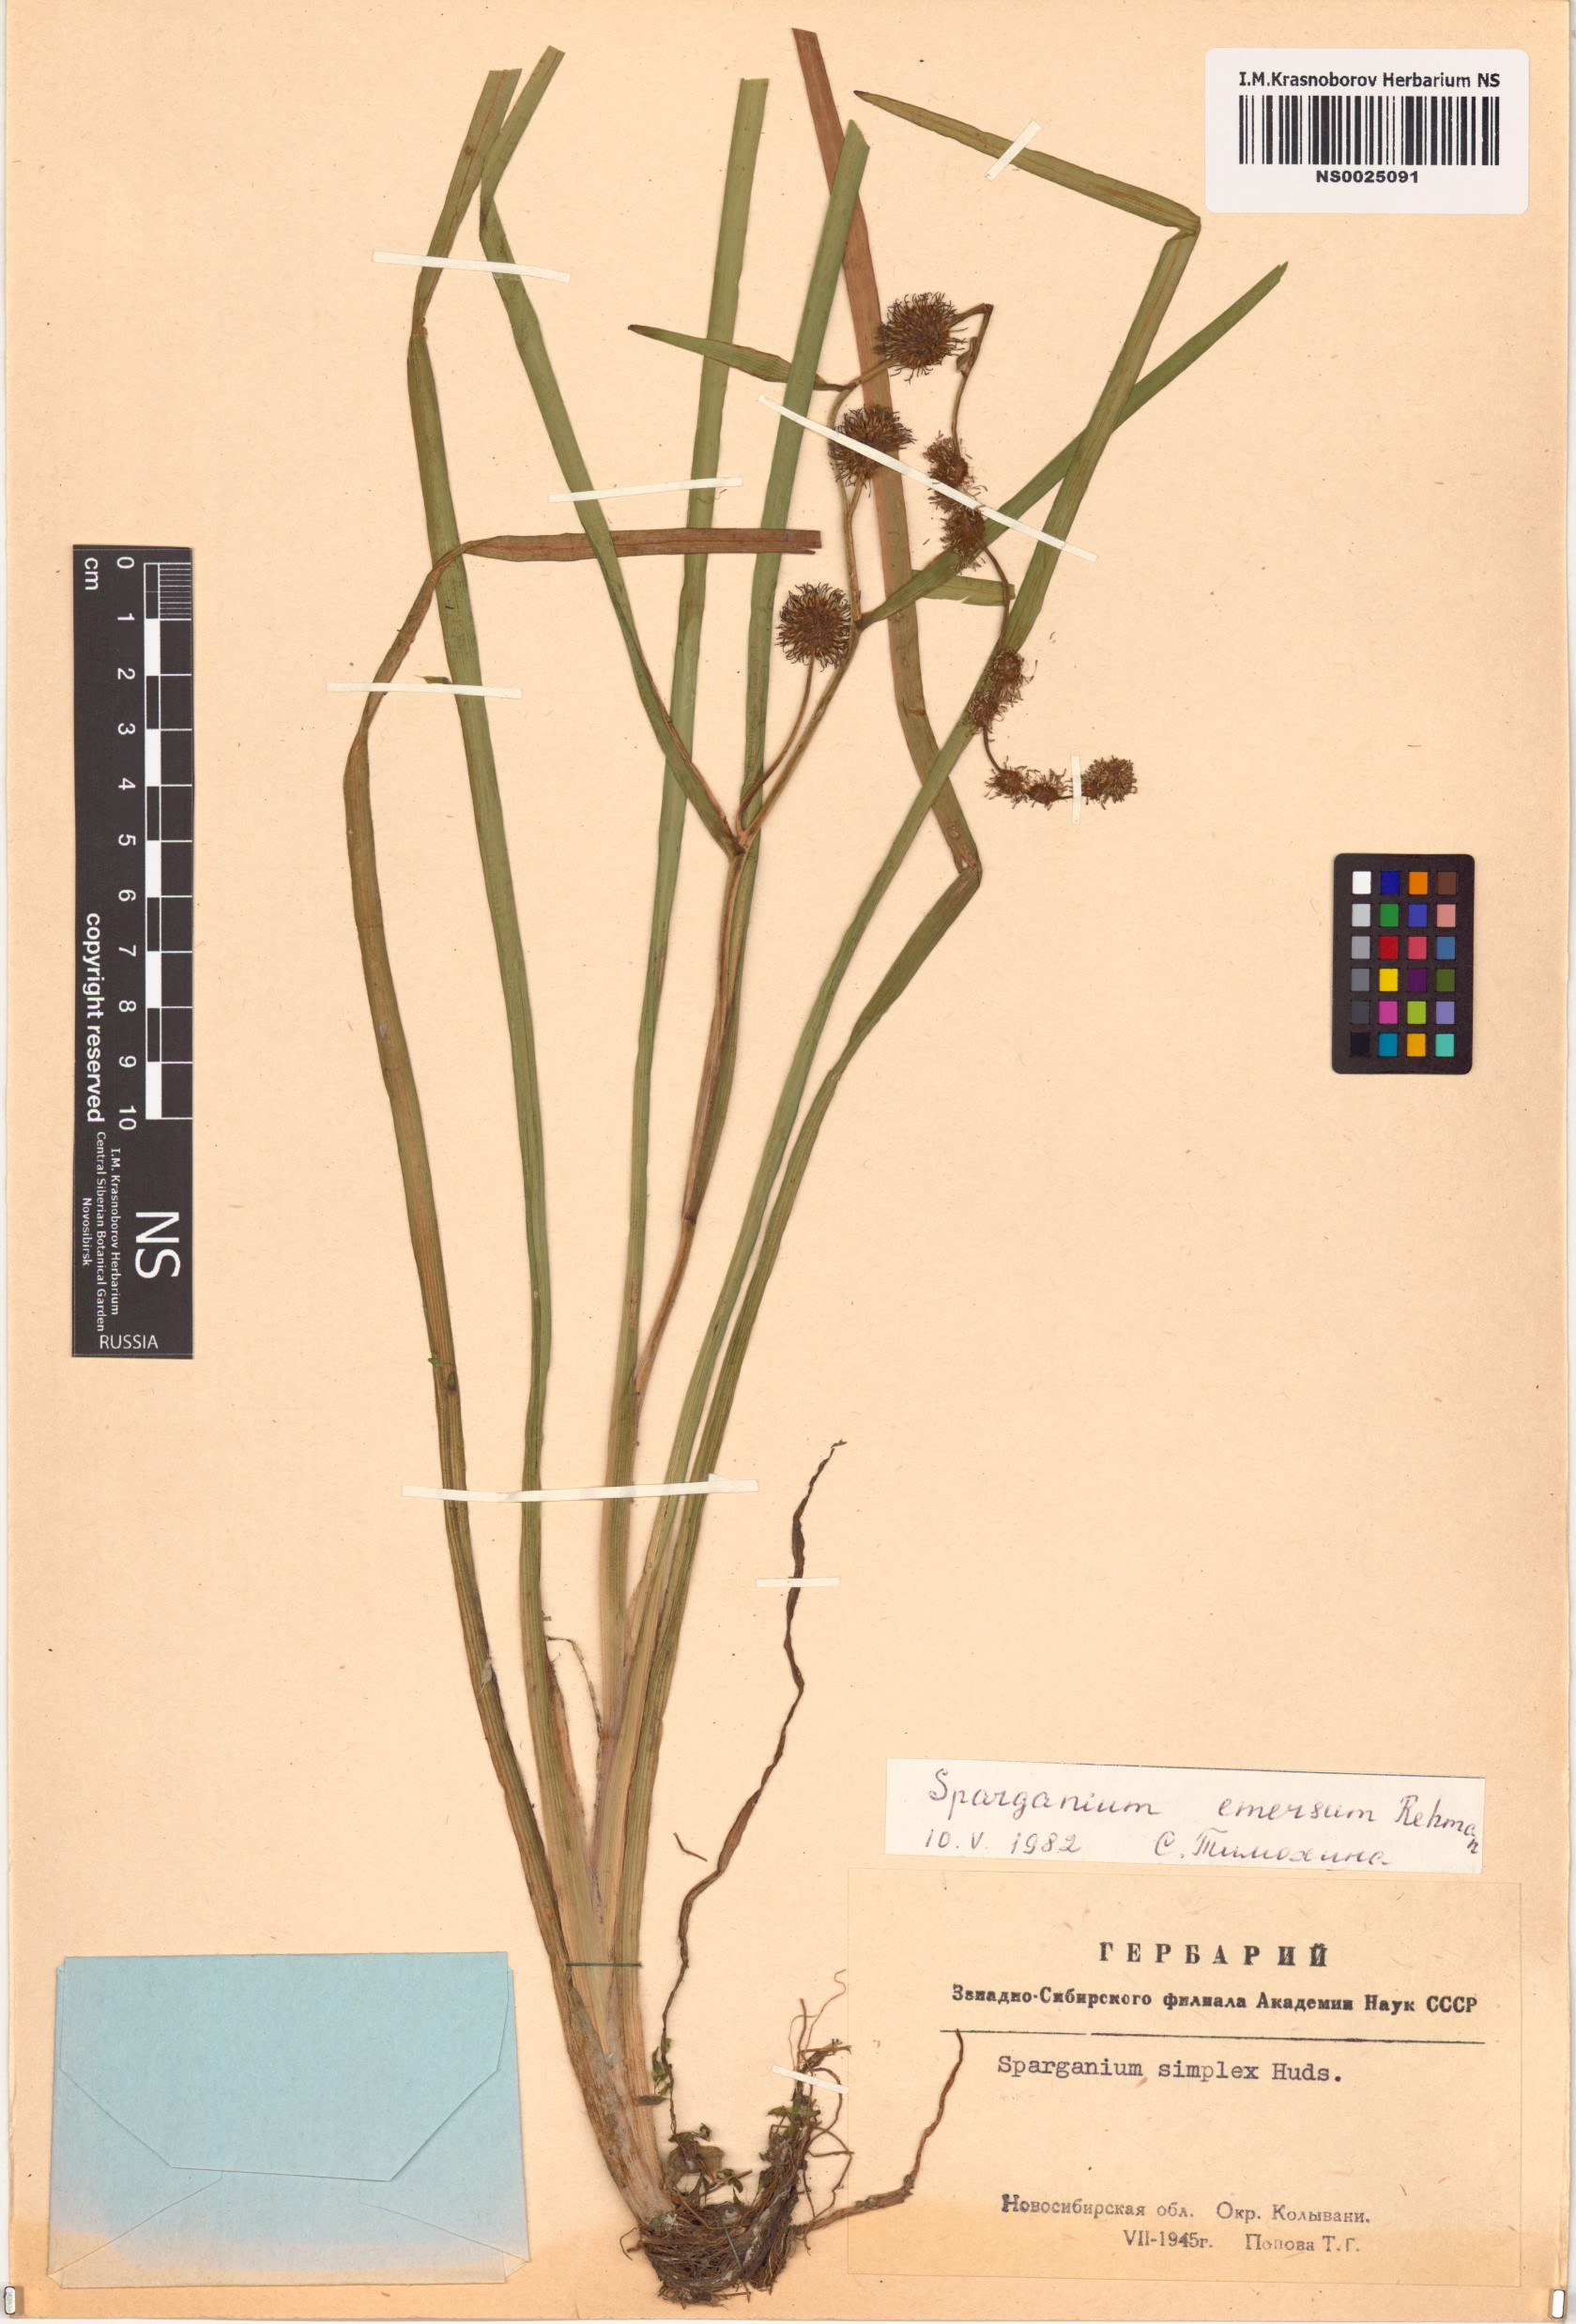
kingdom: Plantae
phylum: Tracheophyta
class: Liliopsida
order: Poales
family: Typhaceae
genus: Sparganium
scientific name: Sparganium emersum
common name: Unbranched bur-reed
